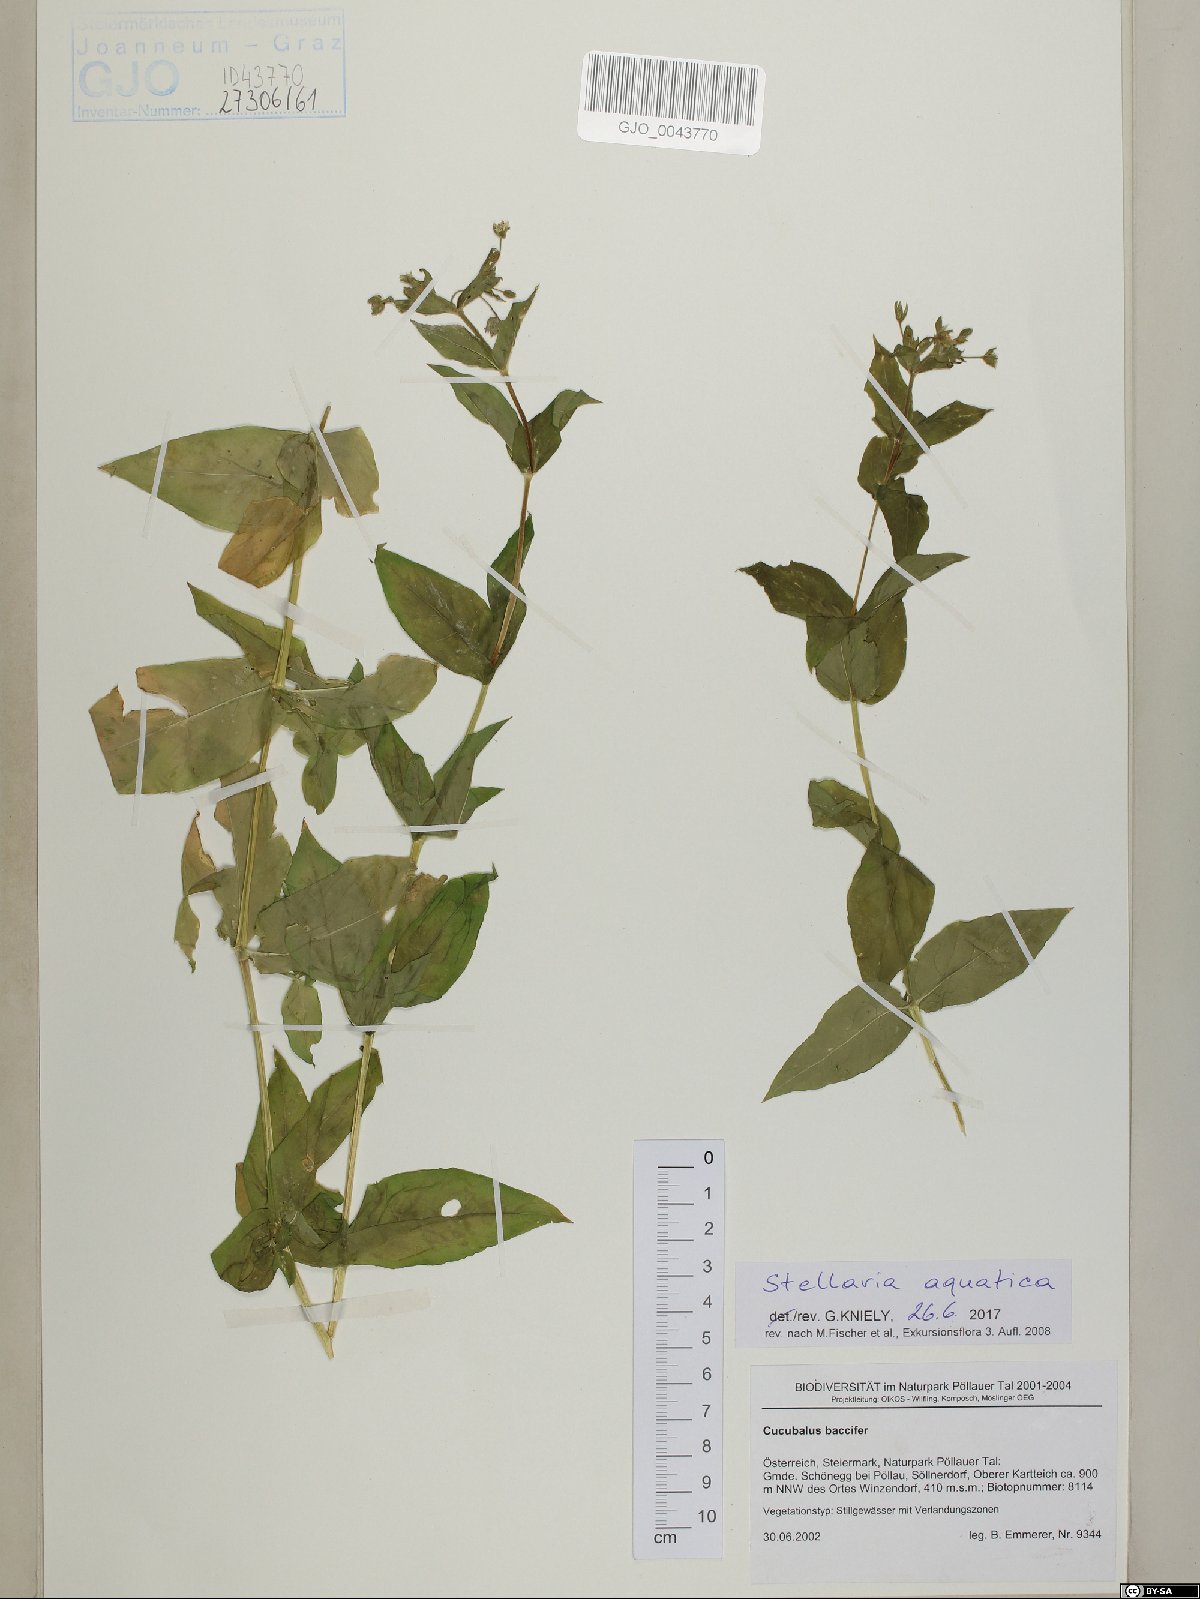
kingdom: Plantae
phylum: Tracheophyta
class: Magnoliopsida
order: Caryophyllales
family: Caryophyllaceae
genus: Stellaria
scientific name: Stellaria aquatica
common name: Water chickweed
